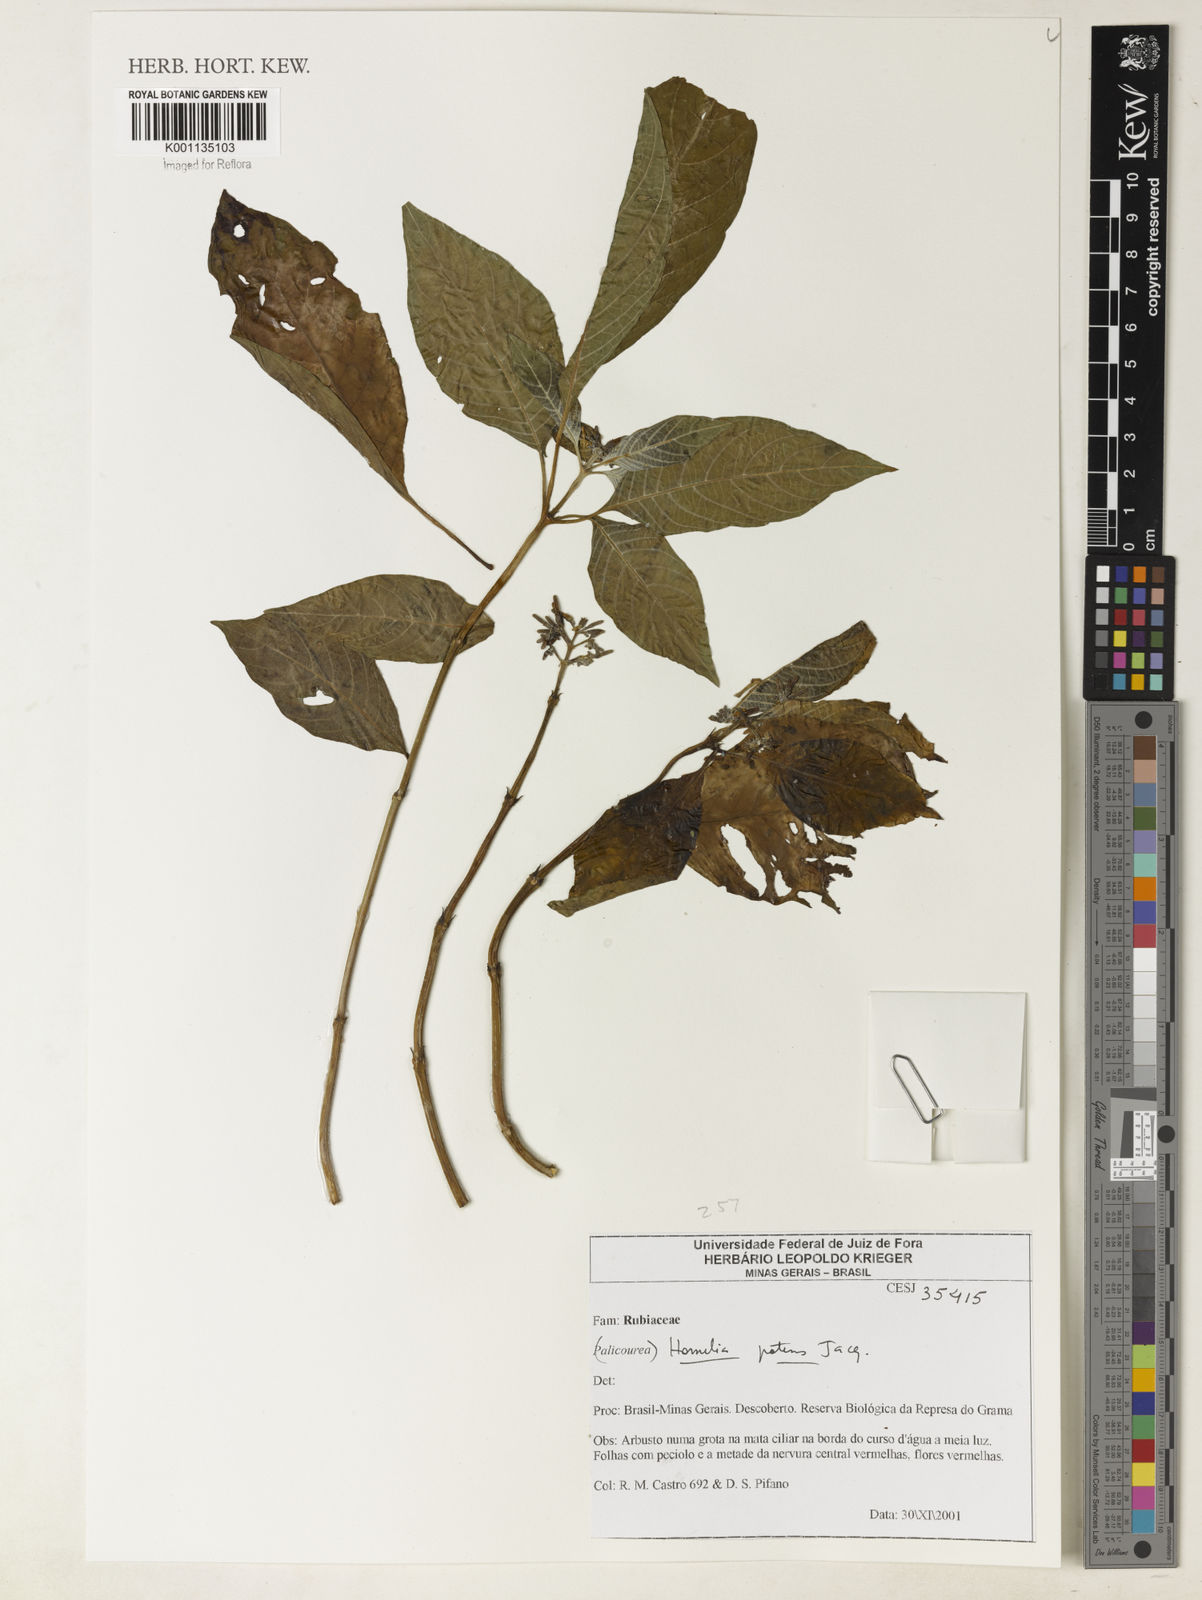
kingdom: Plantae
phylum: Tracheophyta
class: Magnoliopsida
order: Gentianales
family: Rubiaceae
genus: Hamelia
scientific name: Hamelia patens
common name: Redhead
